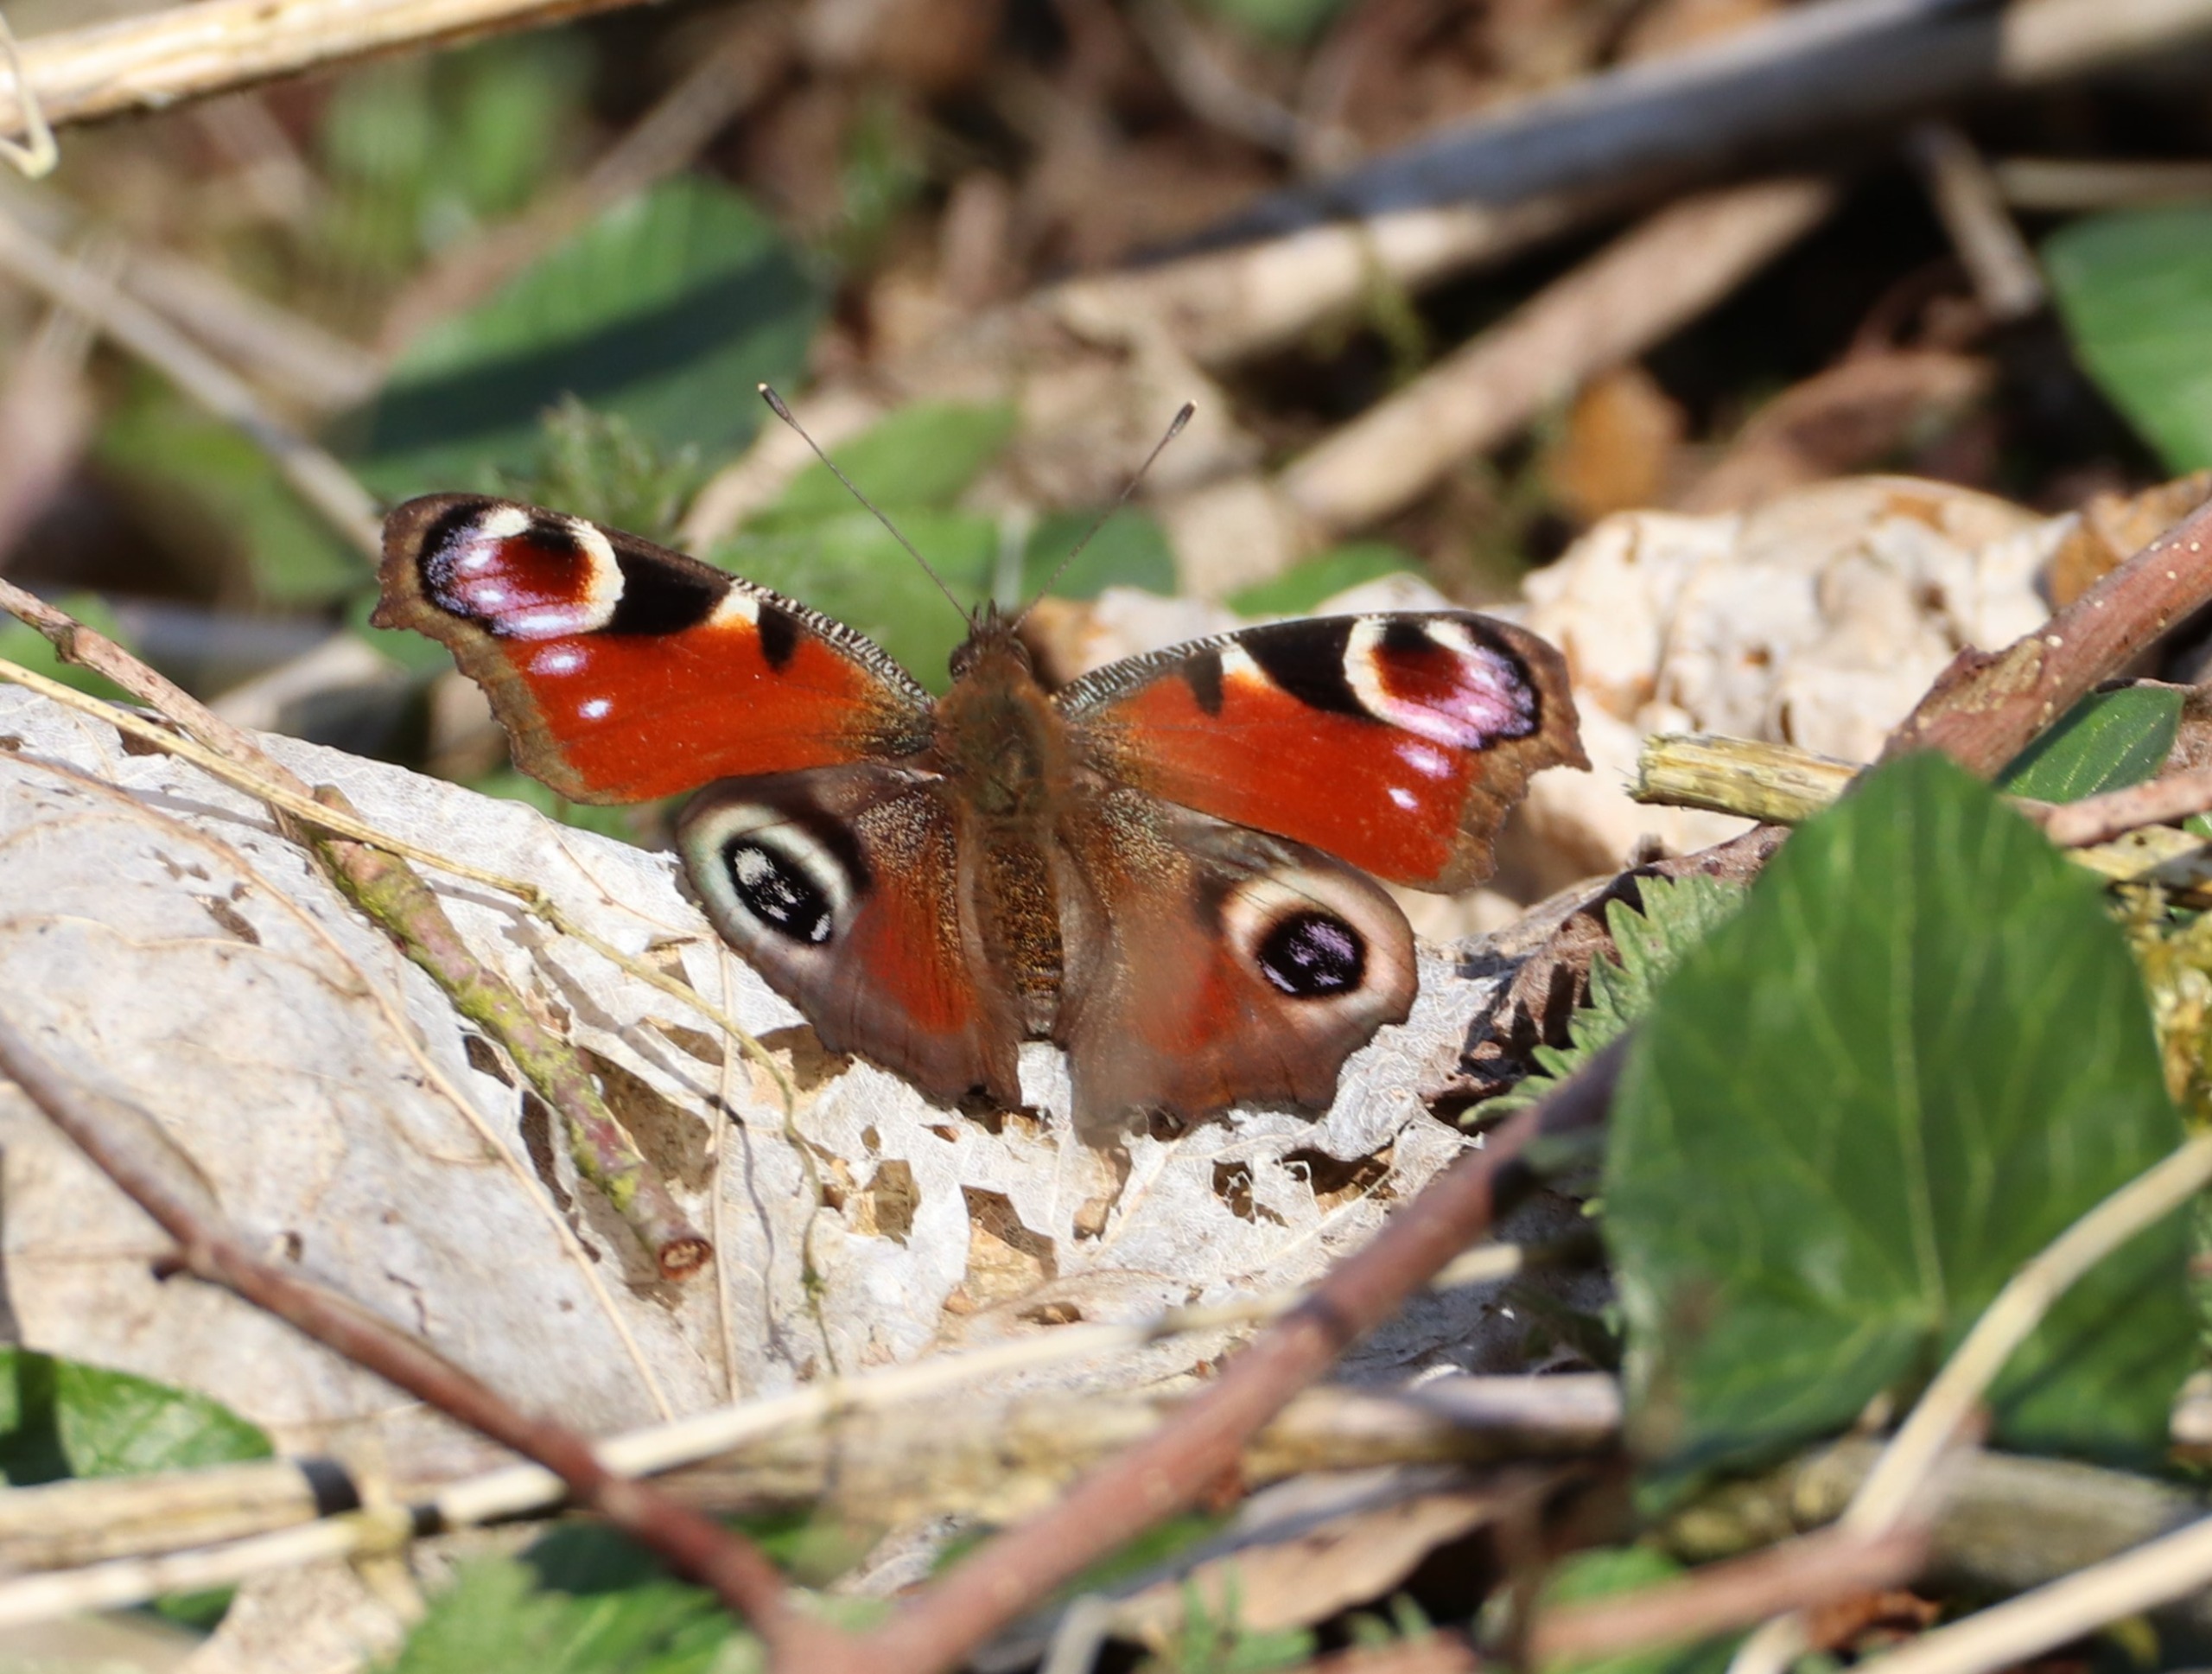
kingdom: Animalia
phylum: Arthropoda
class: Insecta
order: Lepidoptera
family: Nymphalidae
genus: Aglais
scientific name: Aglais io
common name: Dagpåfugleøje
